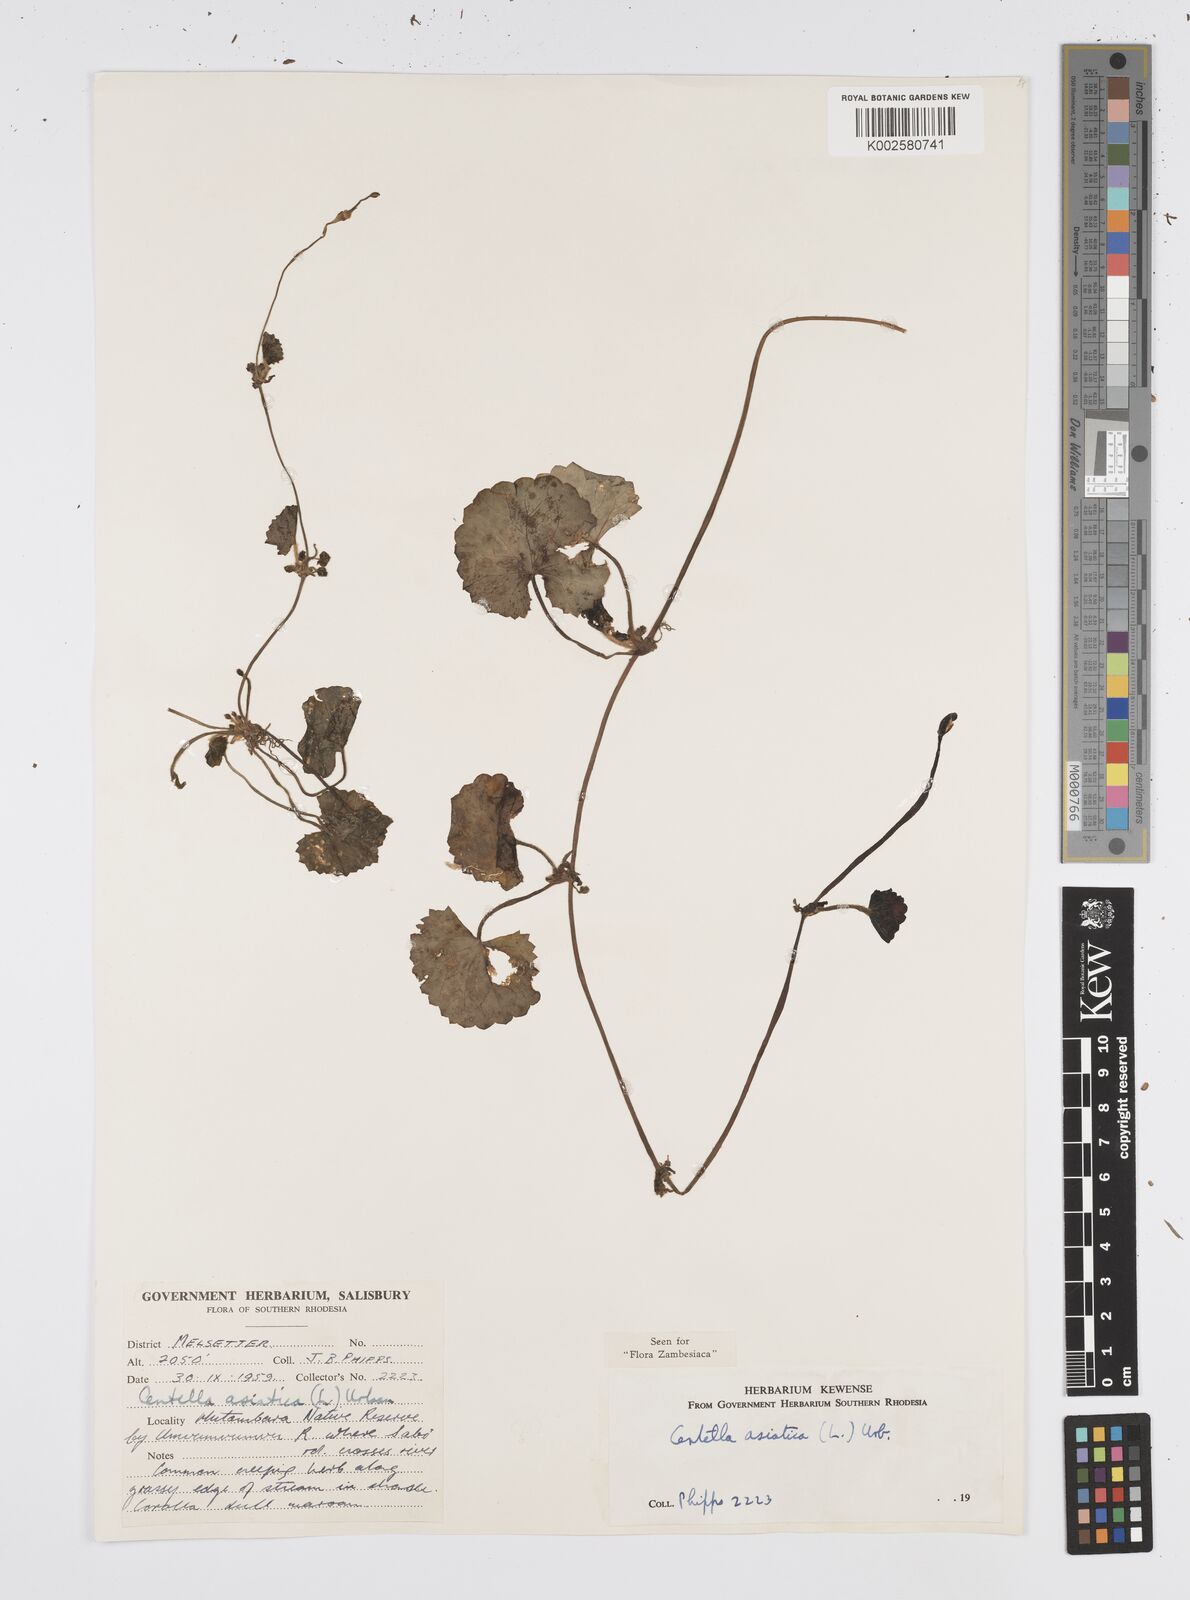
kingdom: Plantae
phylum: Tracheophyta
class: Magnoliopsida
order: Apiales
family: Apiaceae
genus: Centella
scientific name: Centella asiatica
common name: Spadeleaf
